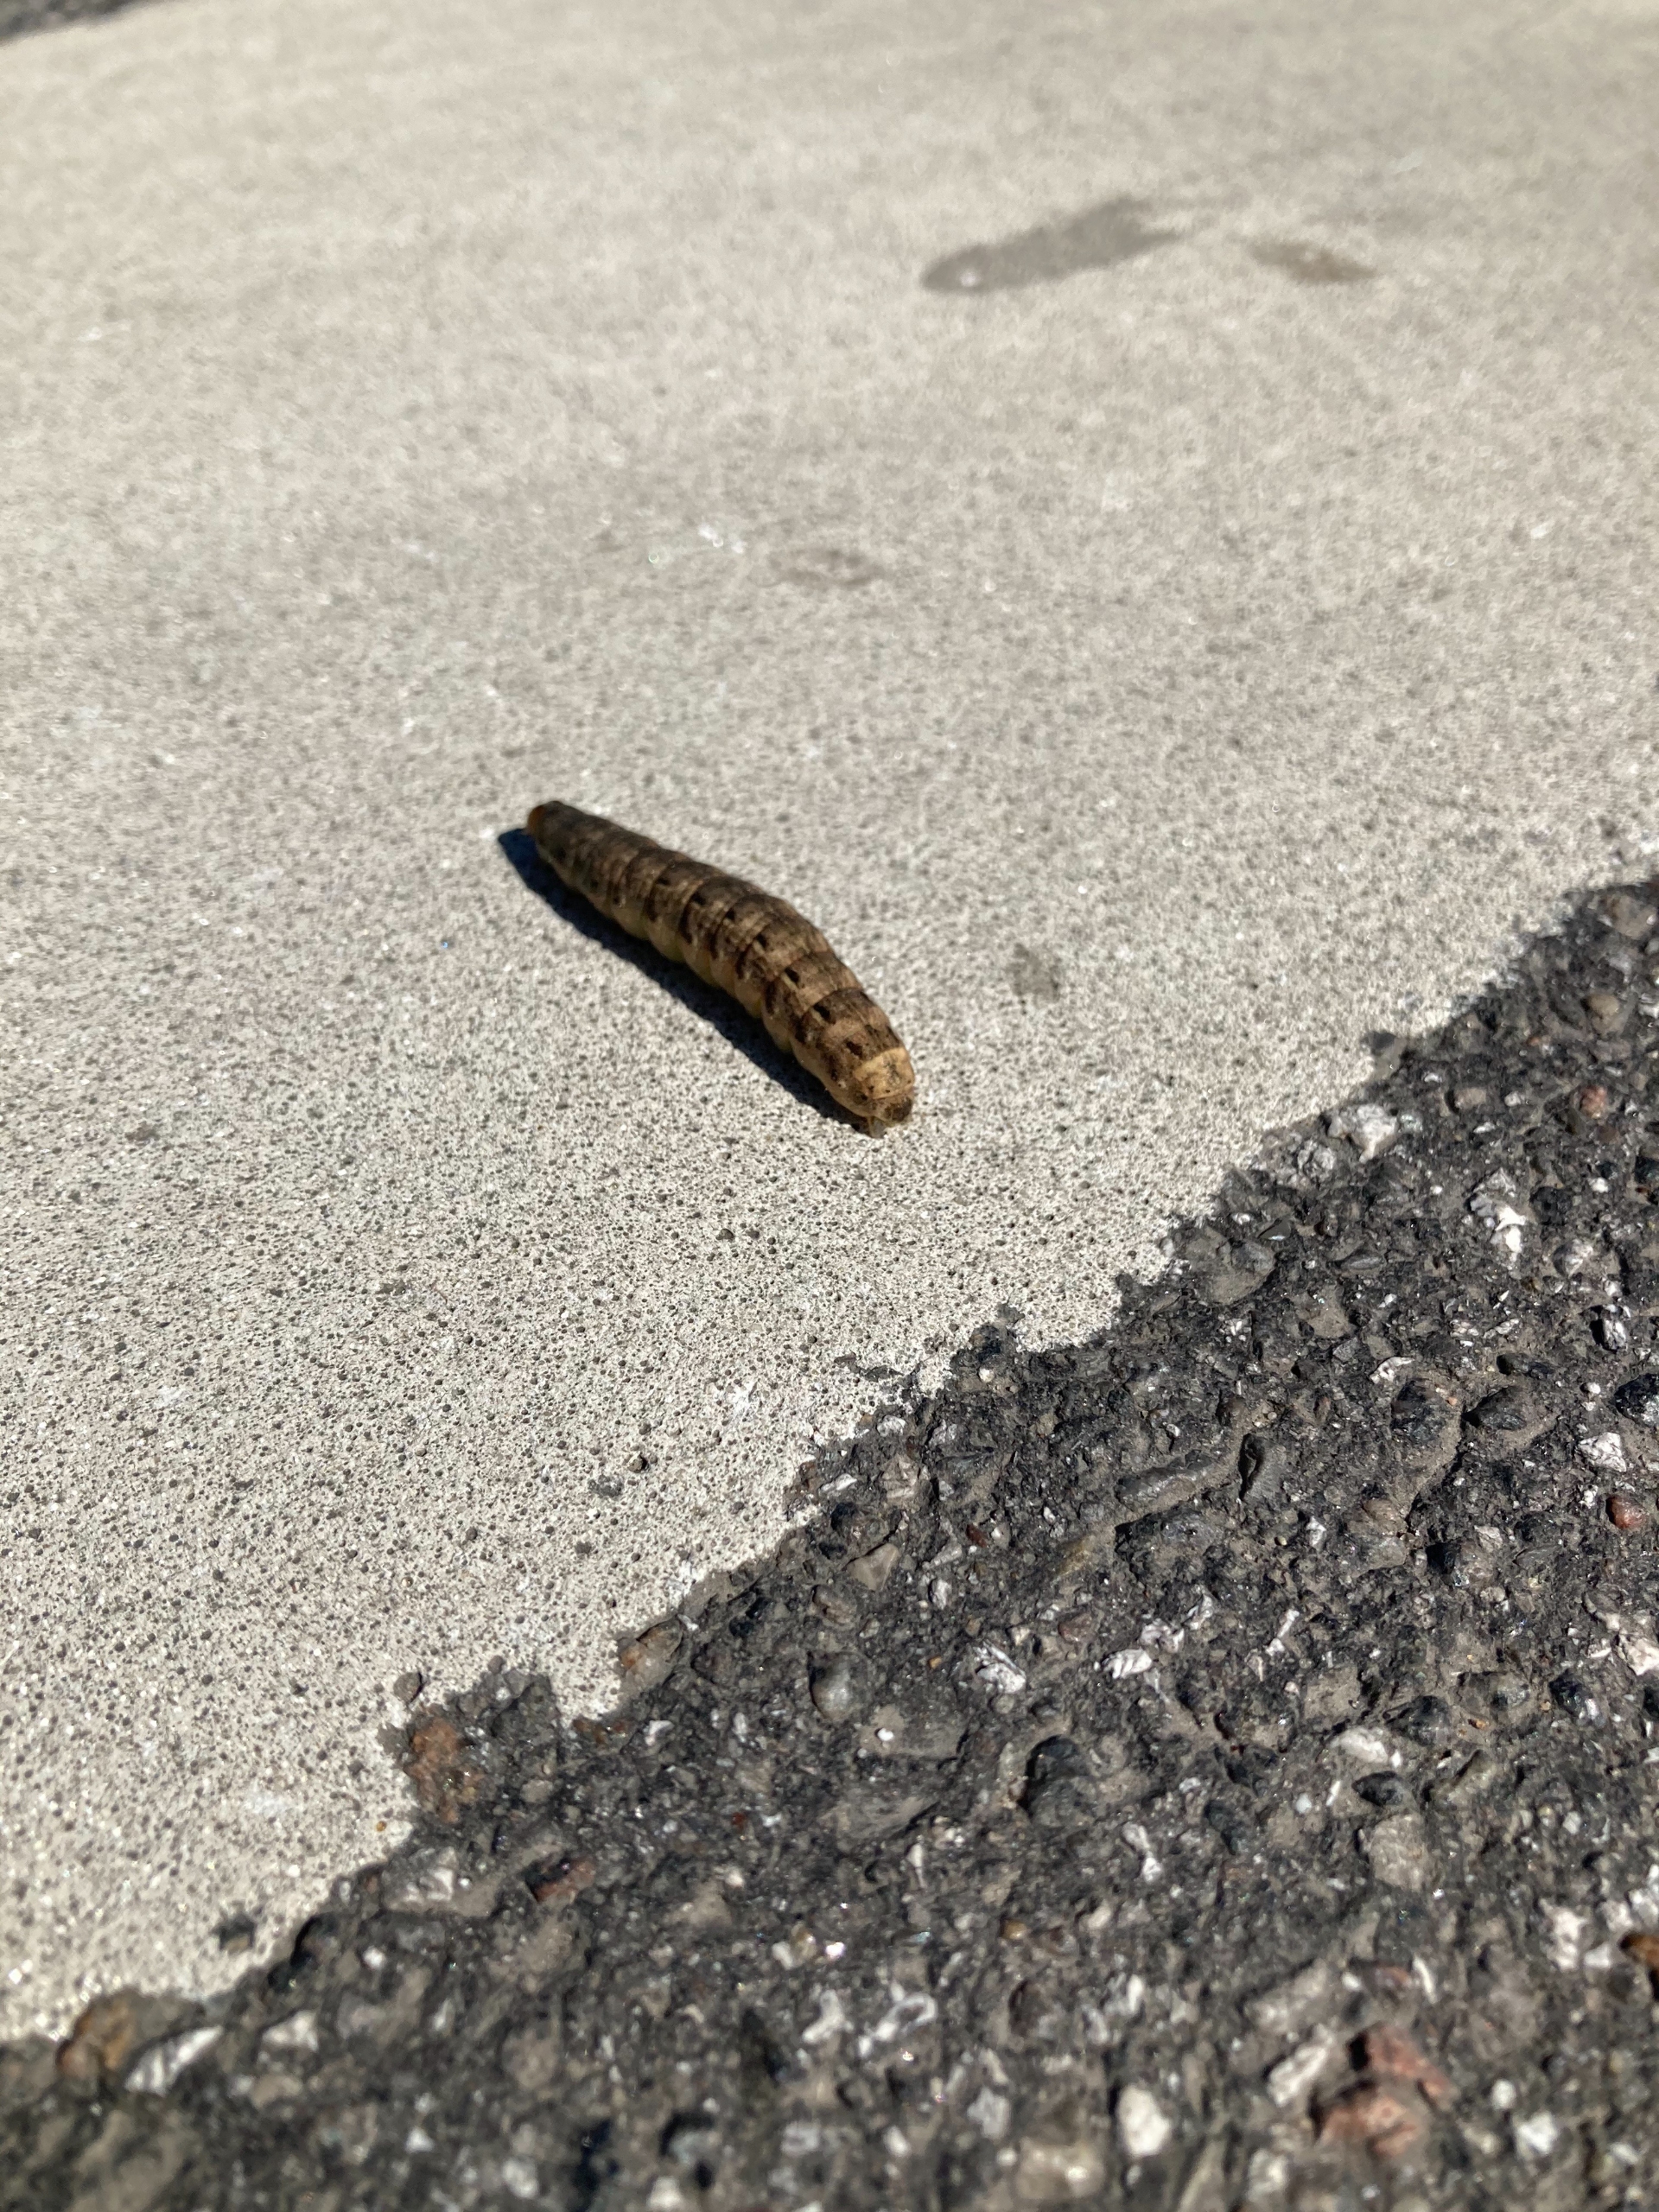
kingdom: Animalia
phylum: Arthropoda
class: Insecta
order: Lepidoptera
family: Noctuidae
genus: Noctua
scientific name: Noctua pronuba
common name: Stor smutugle
